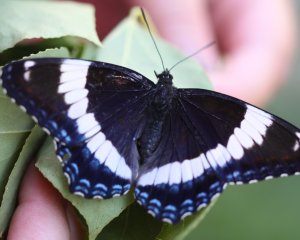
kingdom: Animalia
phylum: Arthropoda
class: Insecta
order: Lepidoptera
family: Nymphalidae
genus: Limenitis
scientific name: Limenitis arthemis
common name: Red-spotted Admiral
